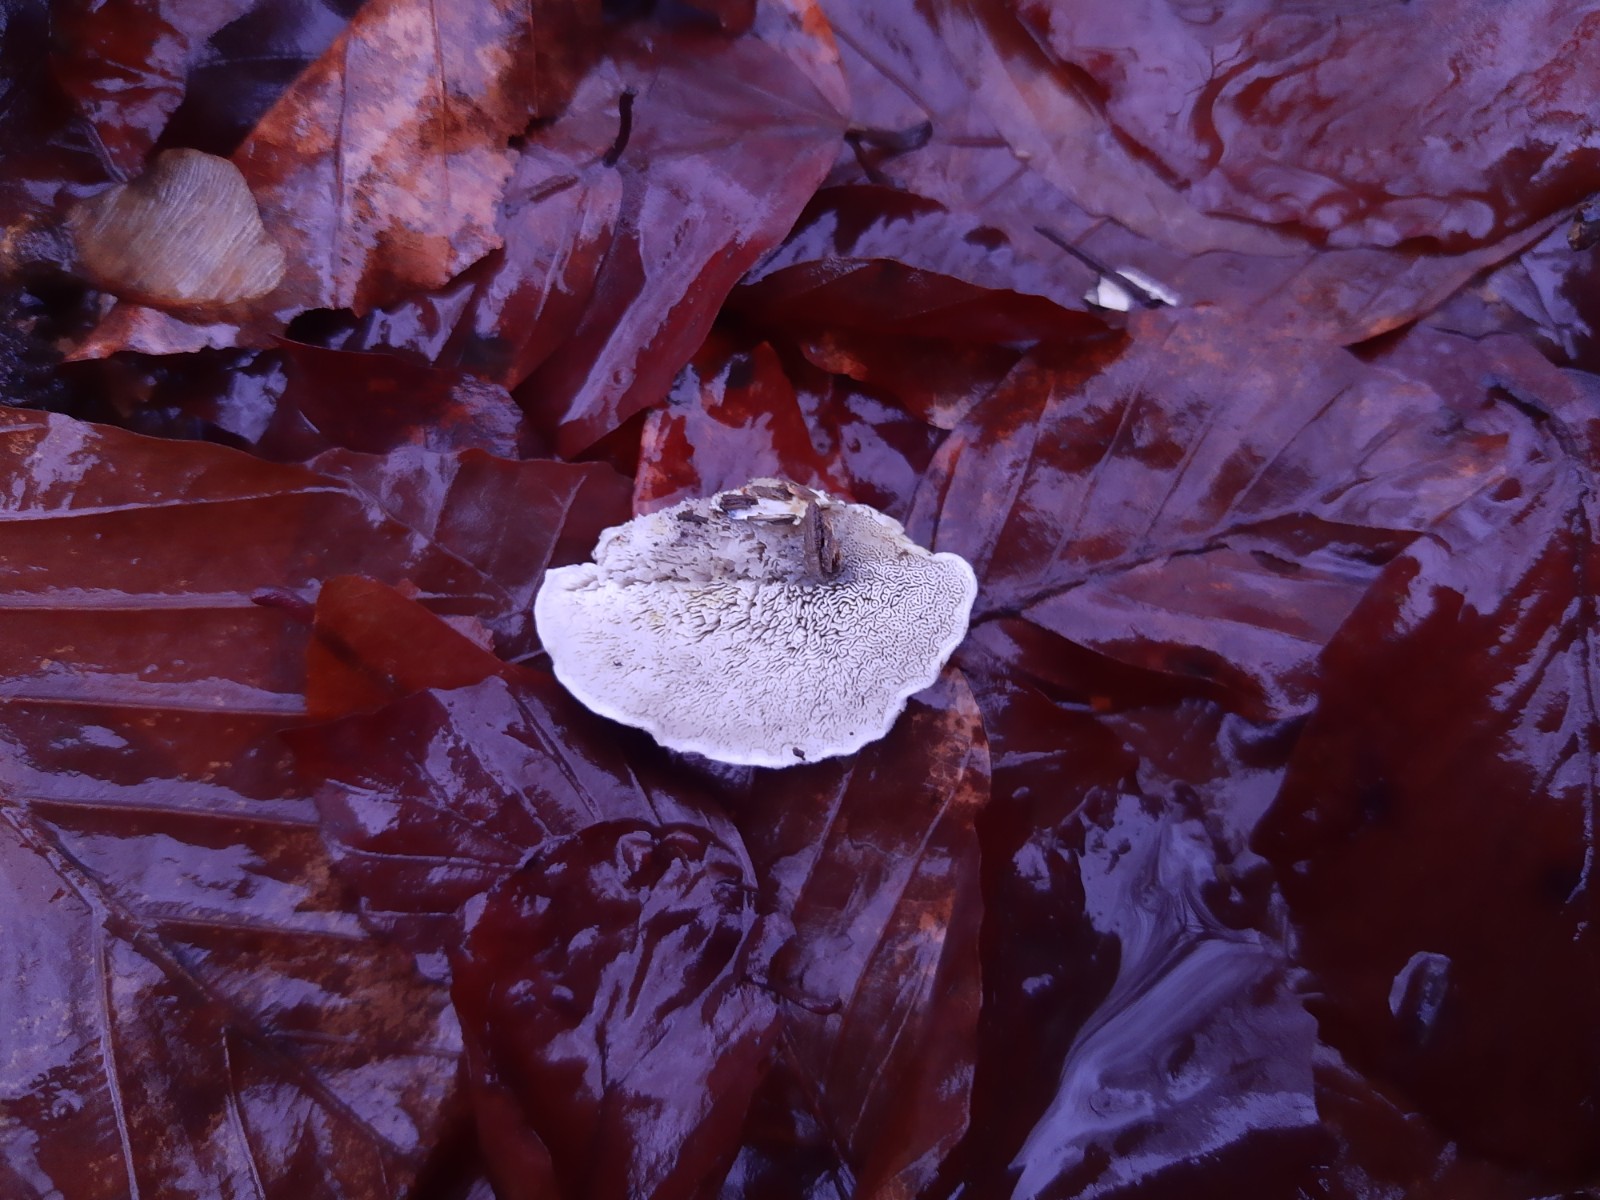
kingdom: Fungi
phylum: Basidiomycota
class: Agaricomycetes
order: Polyporales
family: Polyporaceae
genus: Cyanosporus
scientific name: Cyanosporus alni
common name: blegblå kødporesvamp
